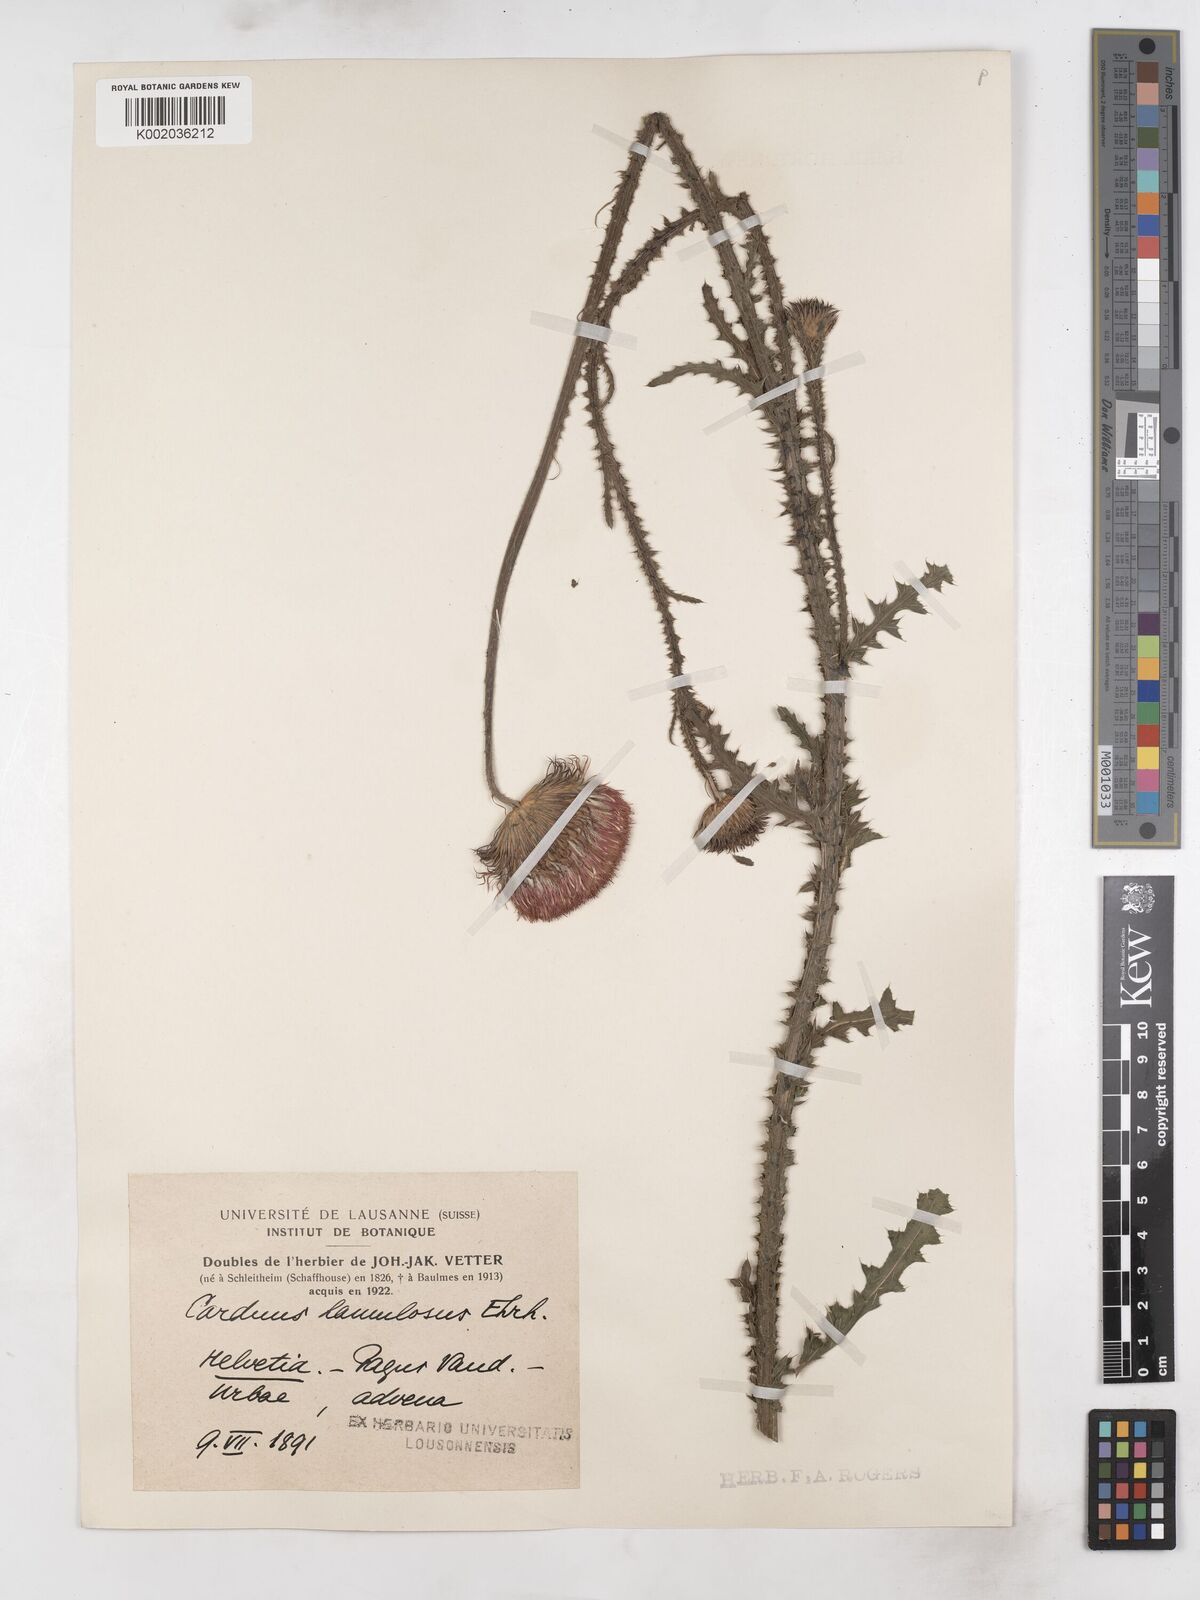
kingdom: Plantae
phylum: Tracheophyta
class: Magnoliopsida
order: Asterales
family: Asteraceae
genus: Carduus
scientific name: Carduus hamulosus
